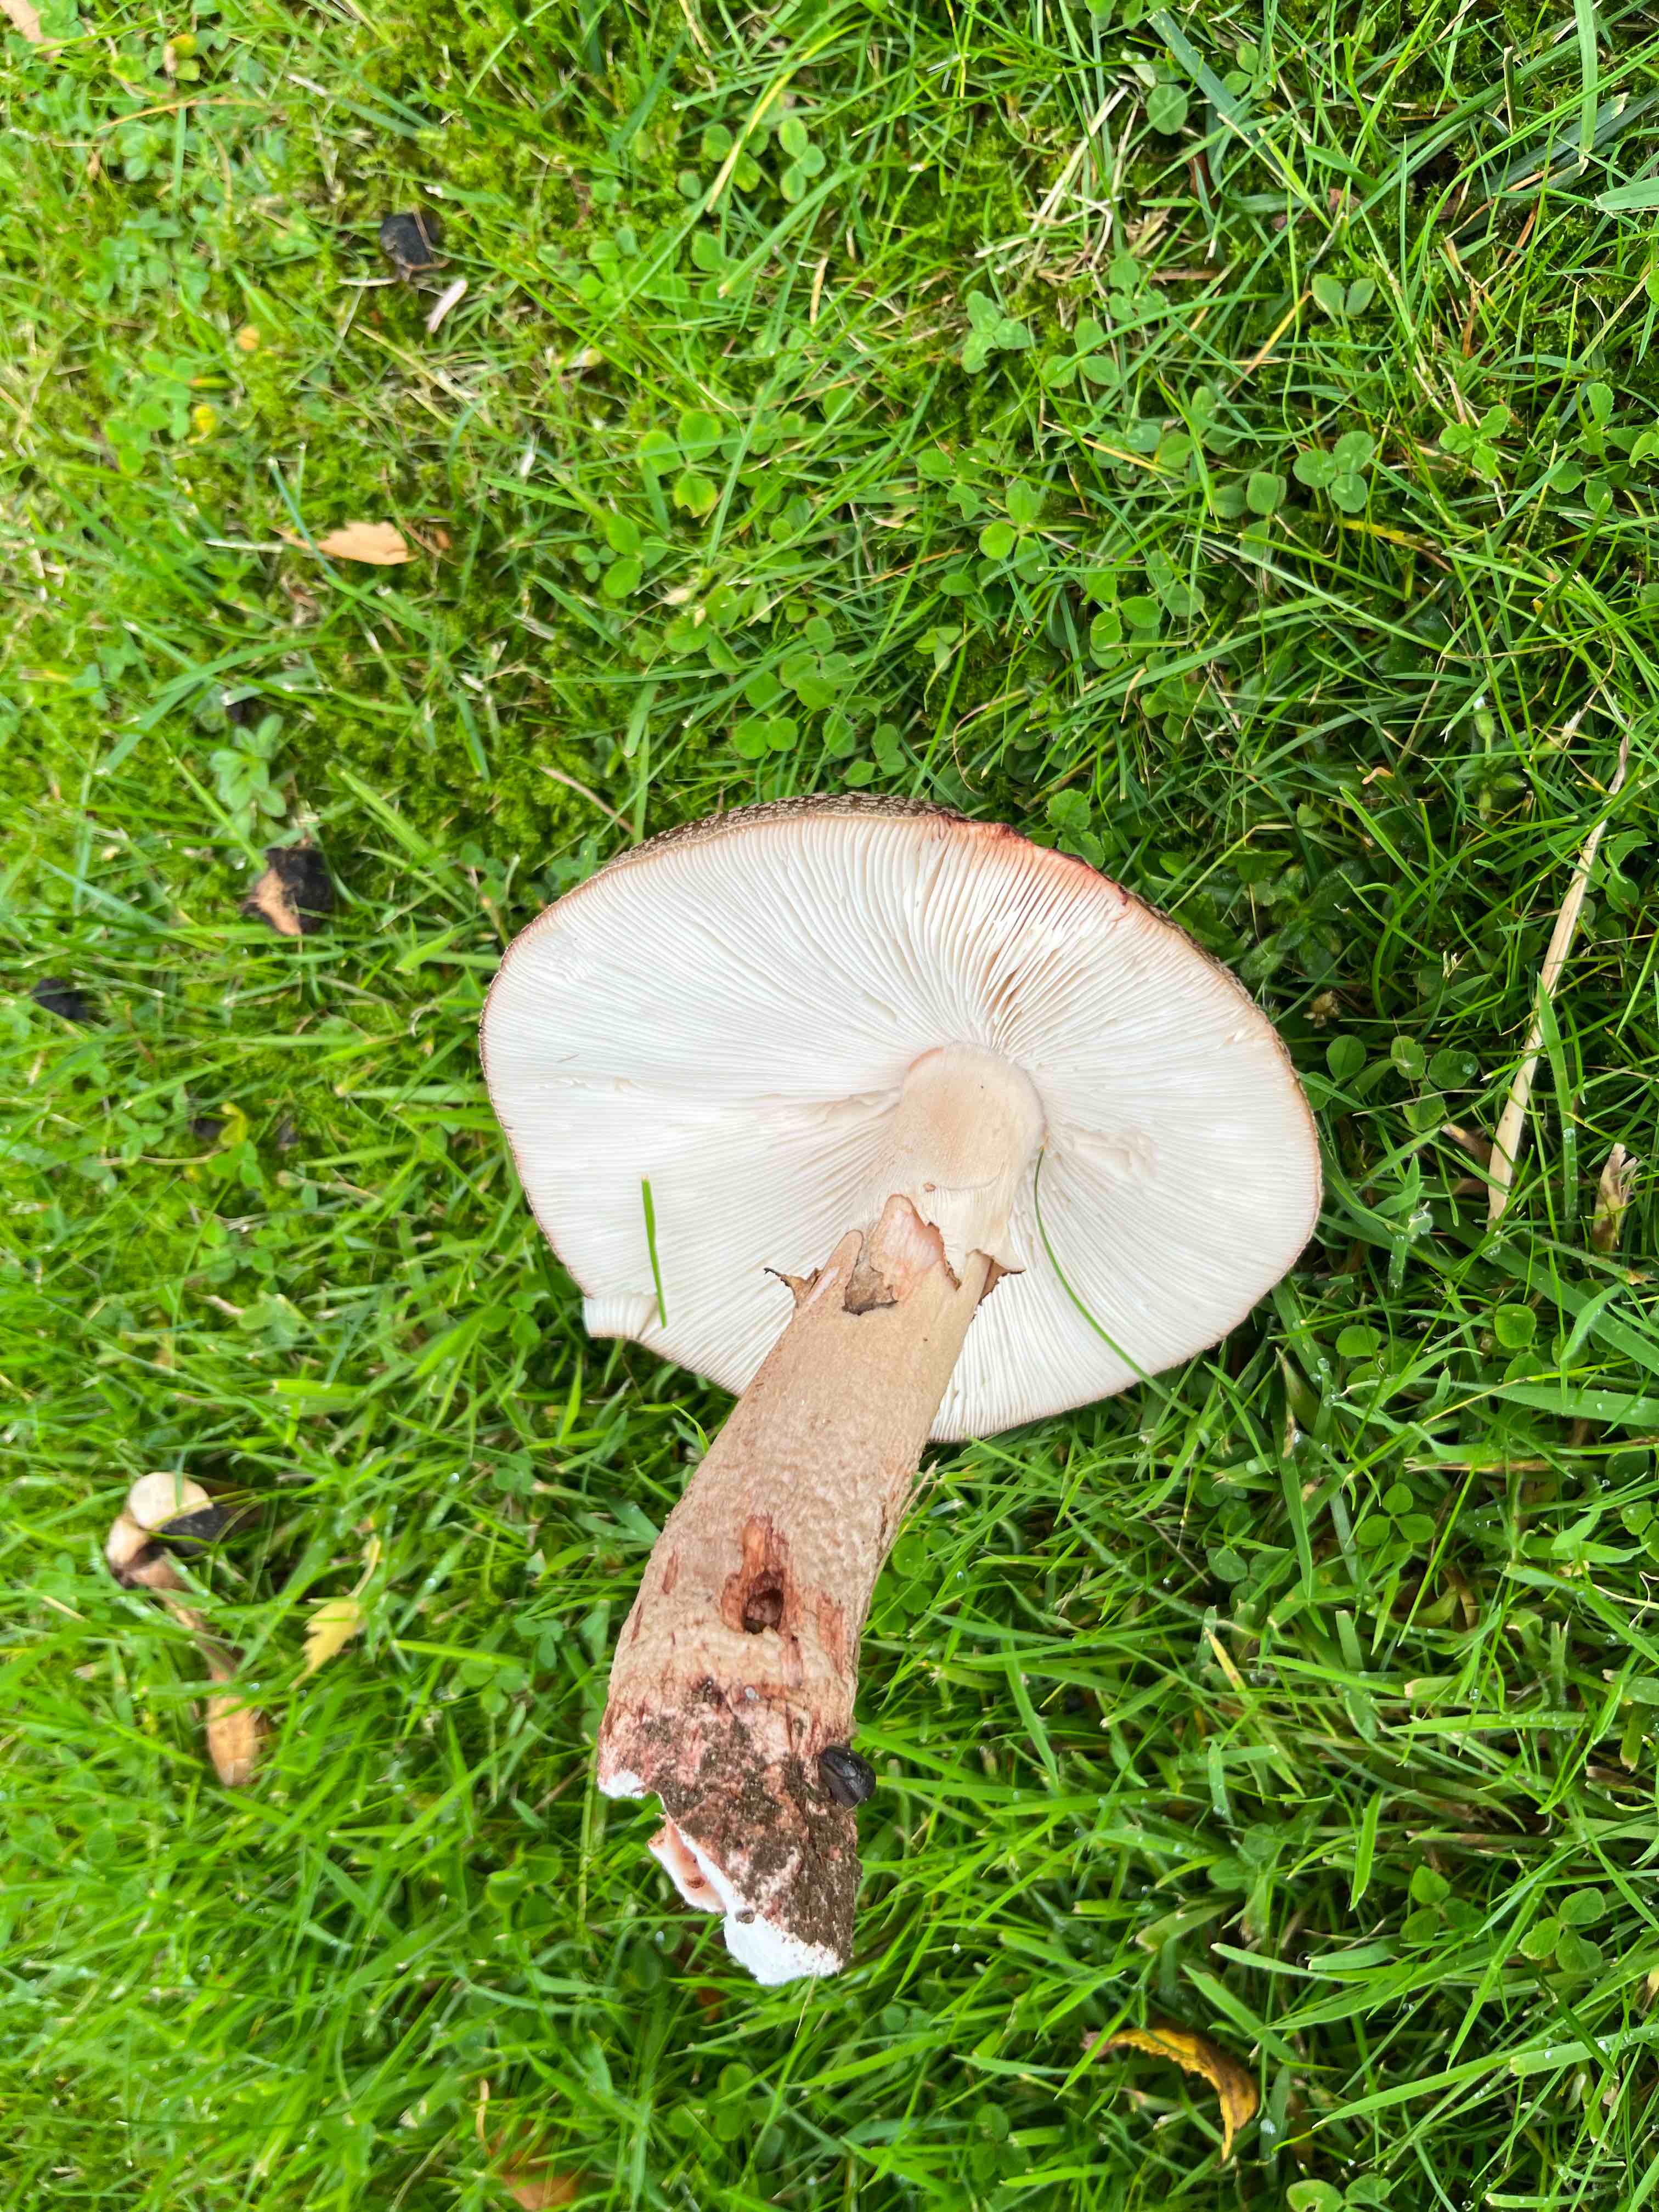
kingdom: Fungi
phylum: Basidiomycota
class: Agaricomycetes
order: Agaricales
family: Amanitaceae
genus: Amanita
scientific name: Amanita rubescens
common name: rødmende fluesvamp
